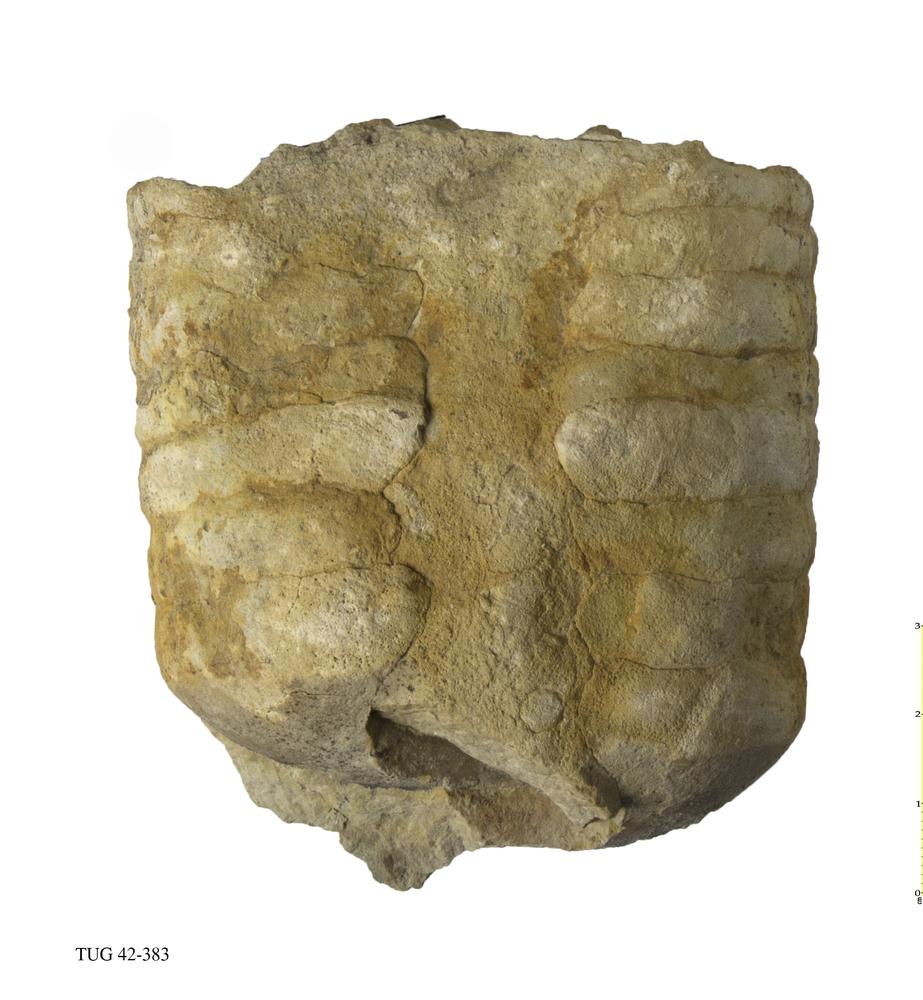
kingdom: Animalia
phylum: Mollusca
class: Cephalopoda
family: Endoceratidae
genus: Proterovaginoceras
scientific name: Proterovaginoceras Endoceras incognitum
